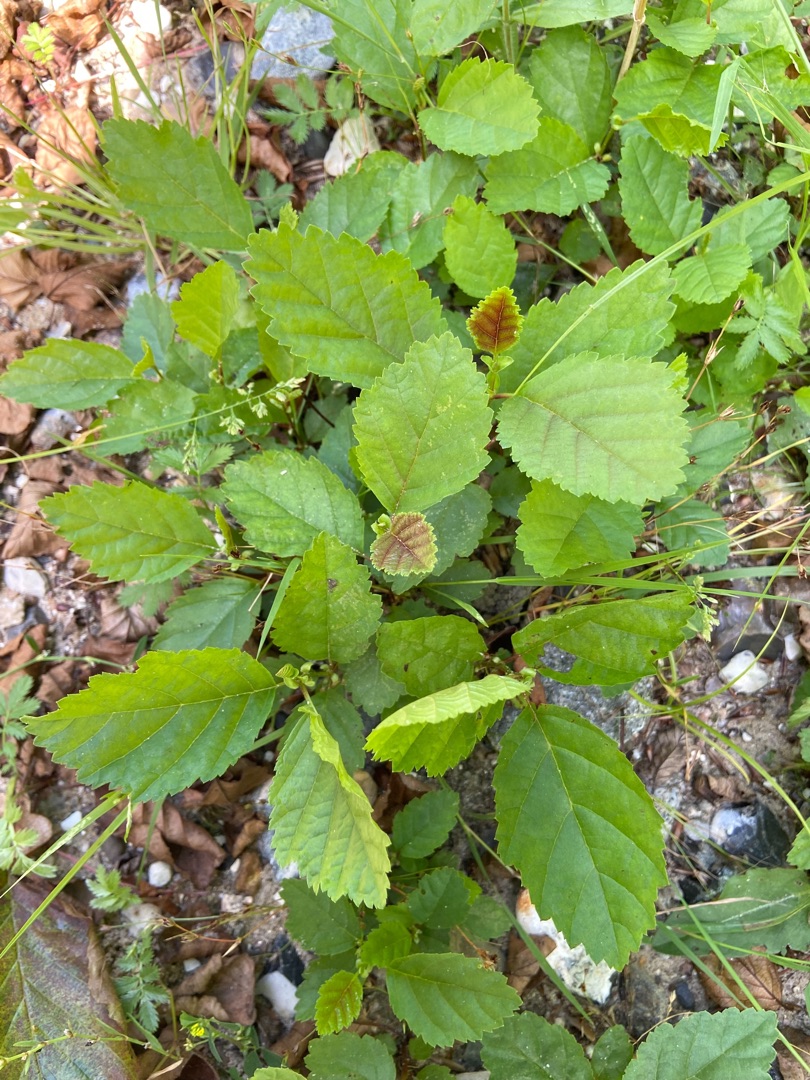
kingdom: Plantae
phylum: Tracheophyta
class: Magnoliopsida
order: Fagales
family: Betulaceae
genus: Alnus
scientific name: Alnus incana
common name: Grå-el/hvid-el
